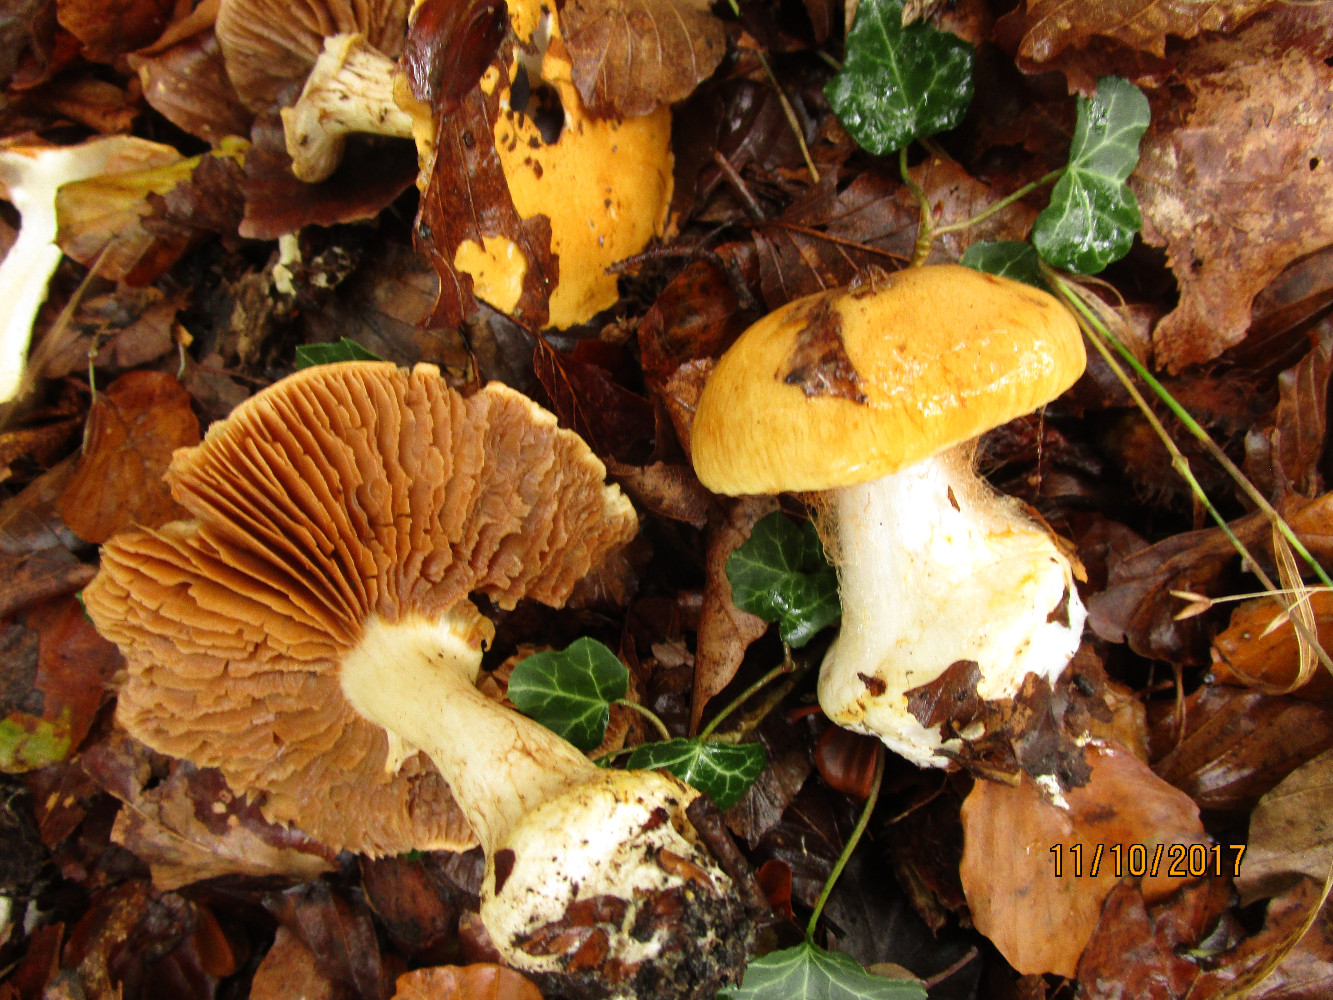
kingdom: Fungi
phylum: Basidiomycota
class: Agaricomycetes
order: Agaricales
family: Cortinariaceae
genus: Phlegmacium
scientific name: Phlegmacium rhizophorum
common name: finkornet slørhat
